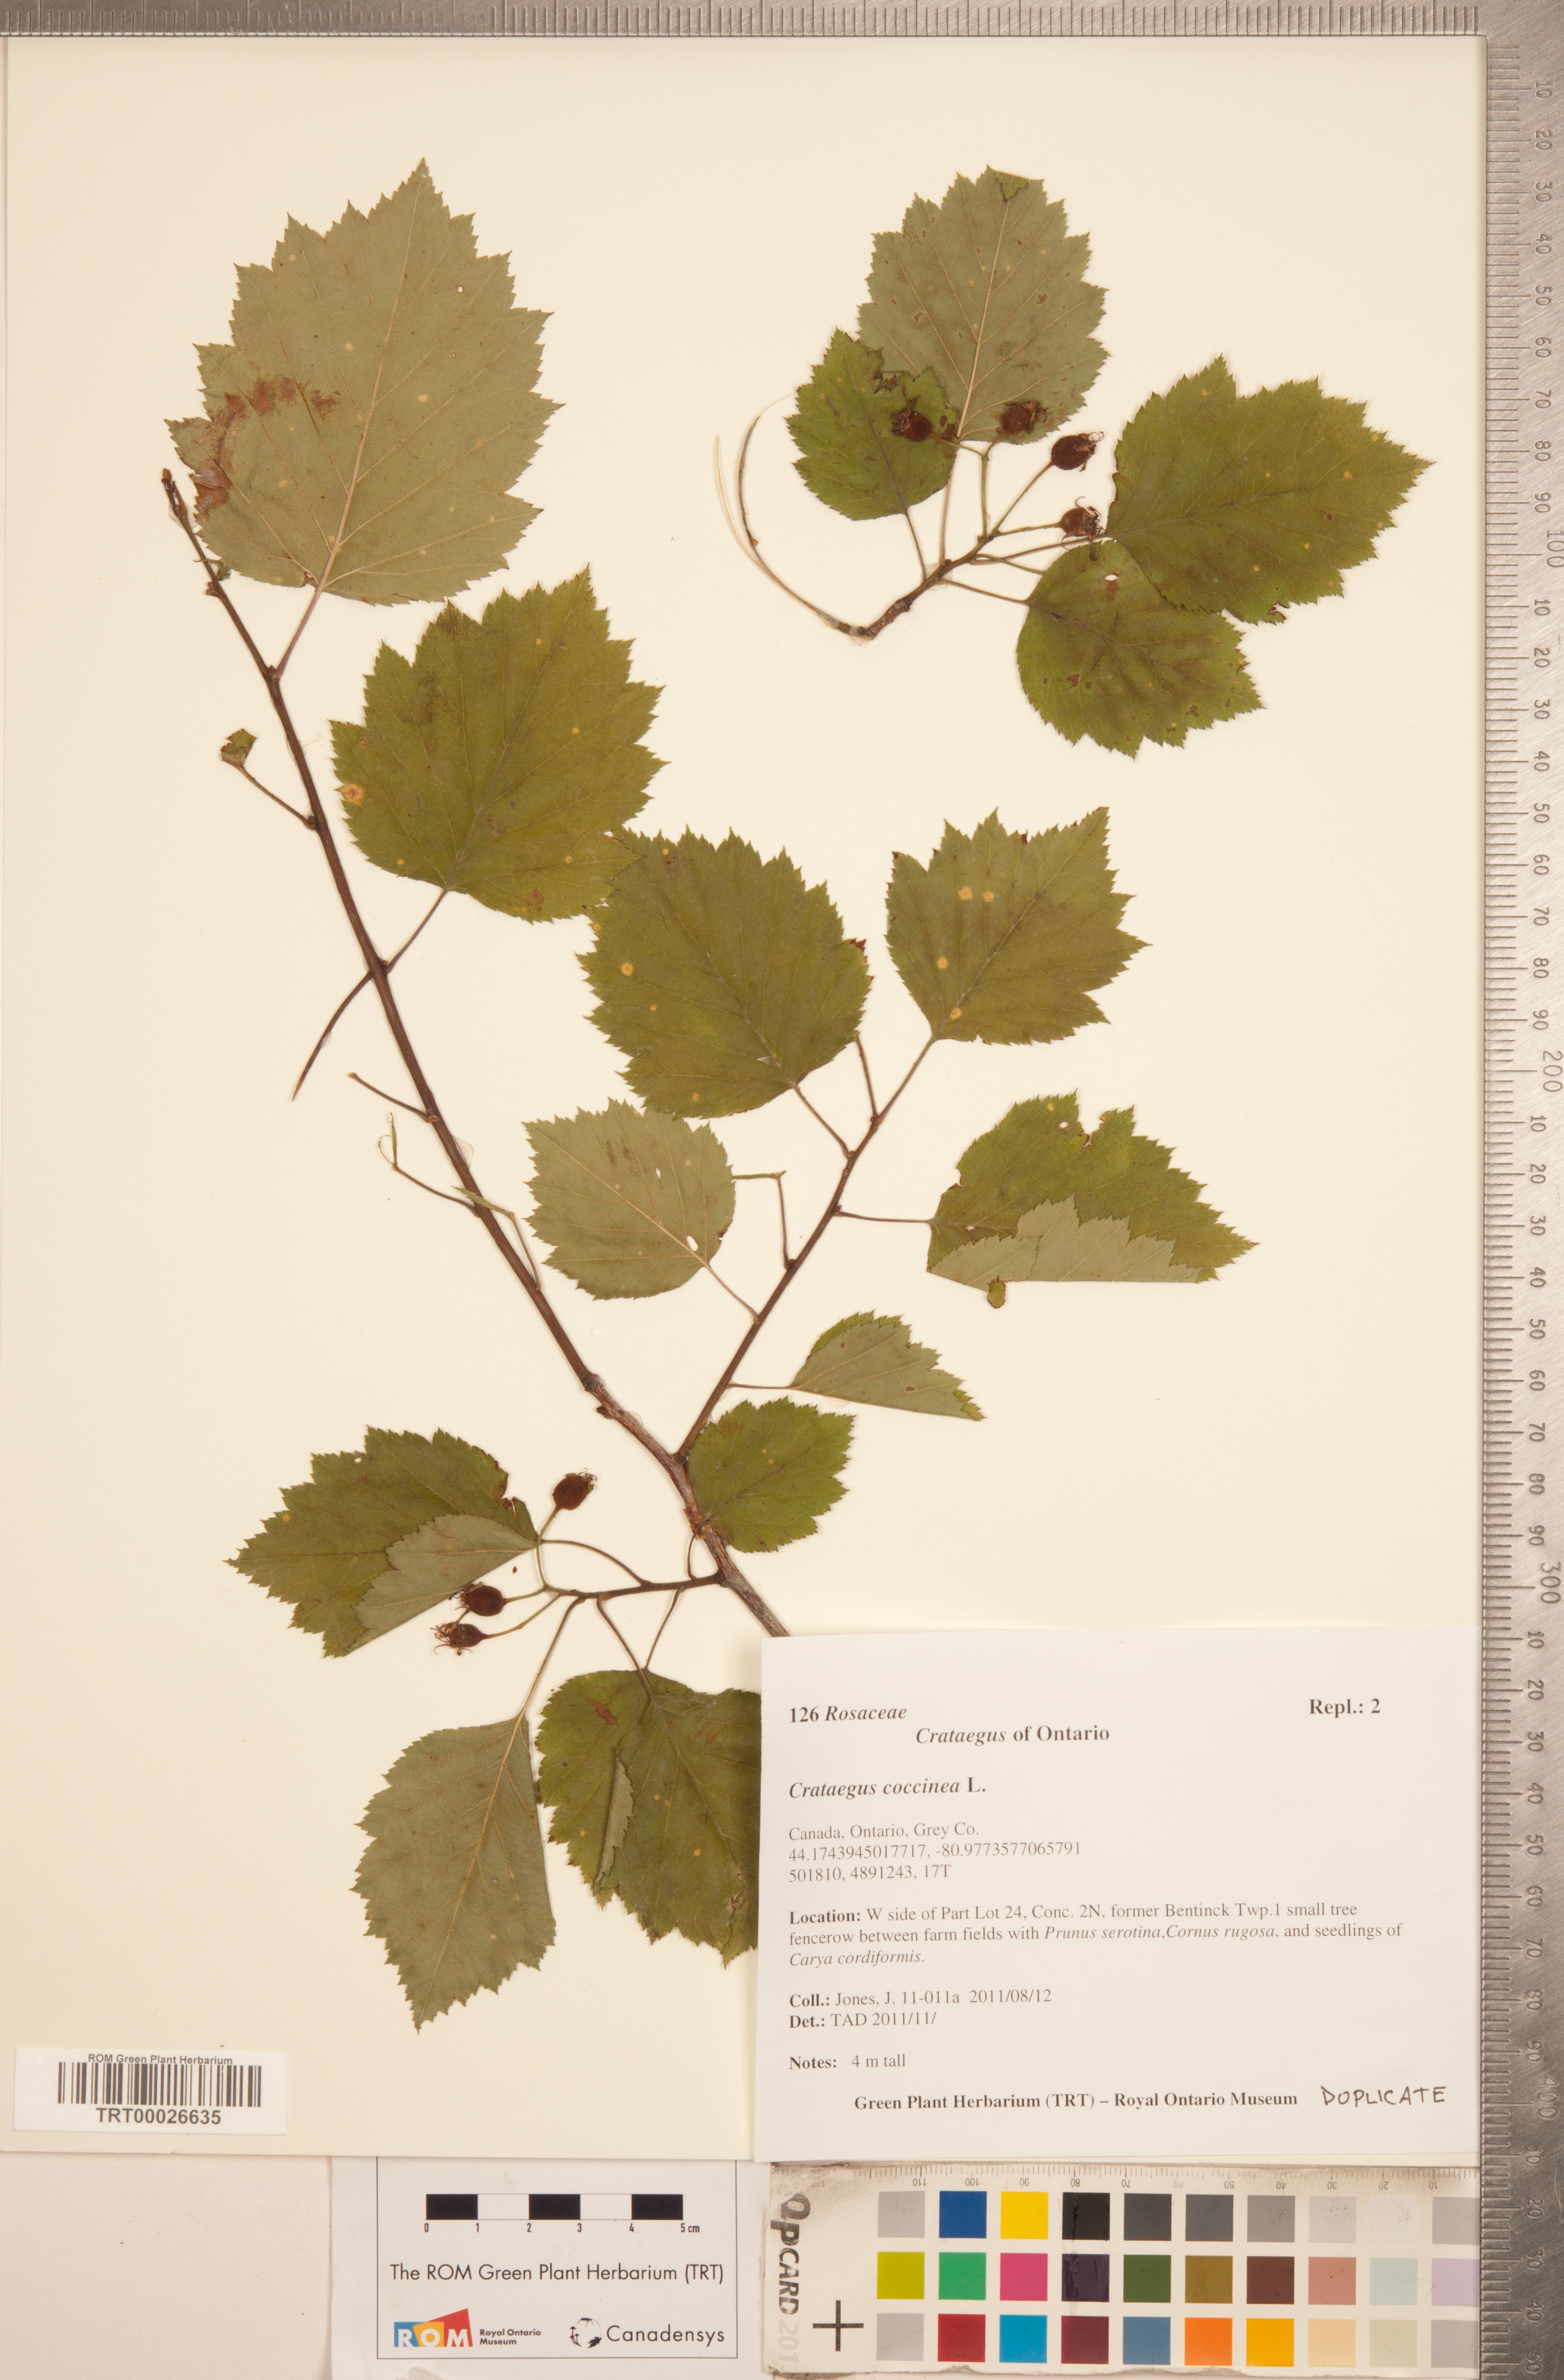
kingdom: Plantae
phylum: Tracheophyta
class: Magnoliopsida
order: Rosales
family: Rosaceae
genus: Crataegus
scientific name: Crataegus coccinea
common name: Scarlet hawthorn
